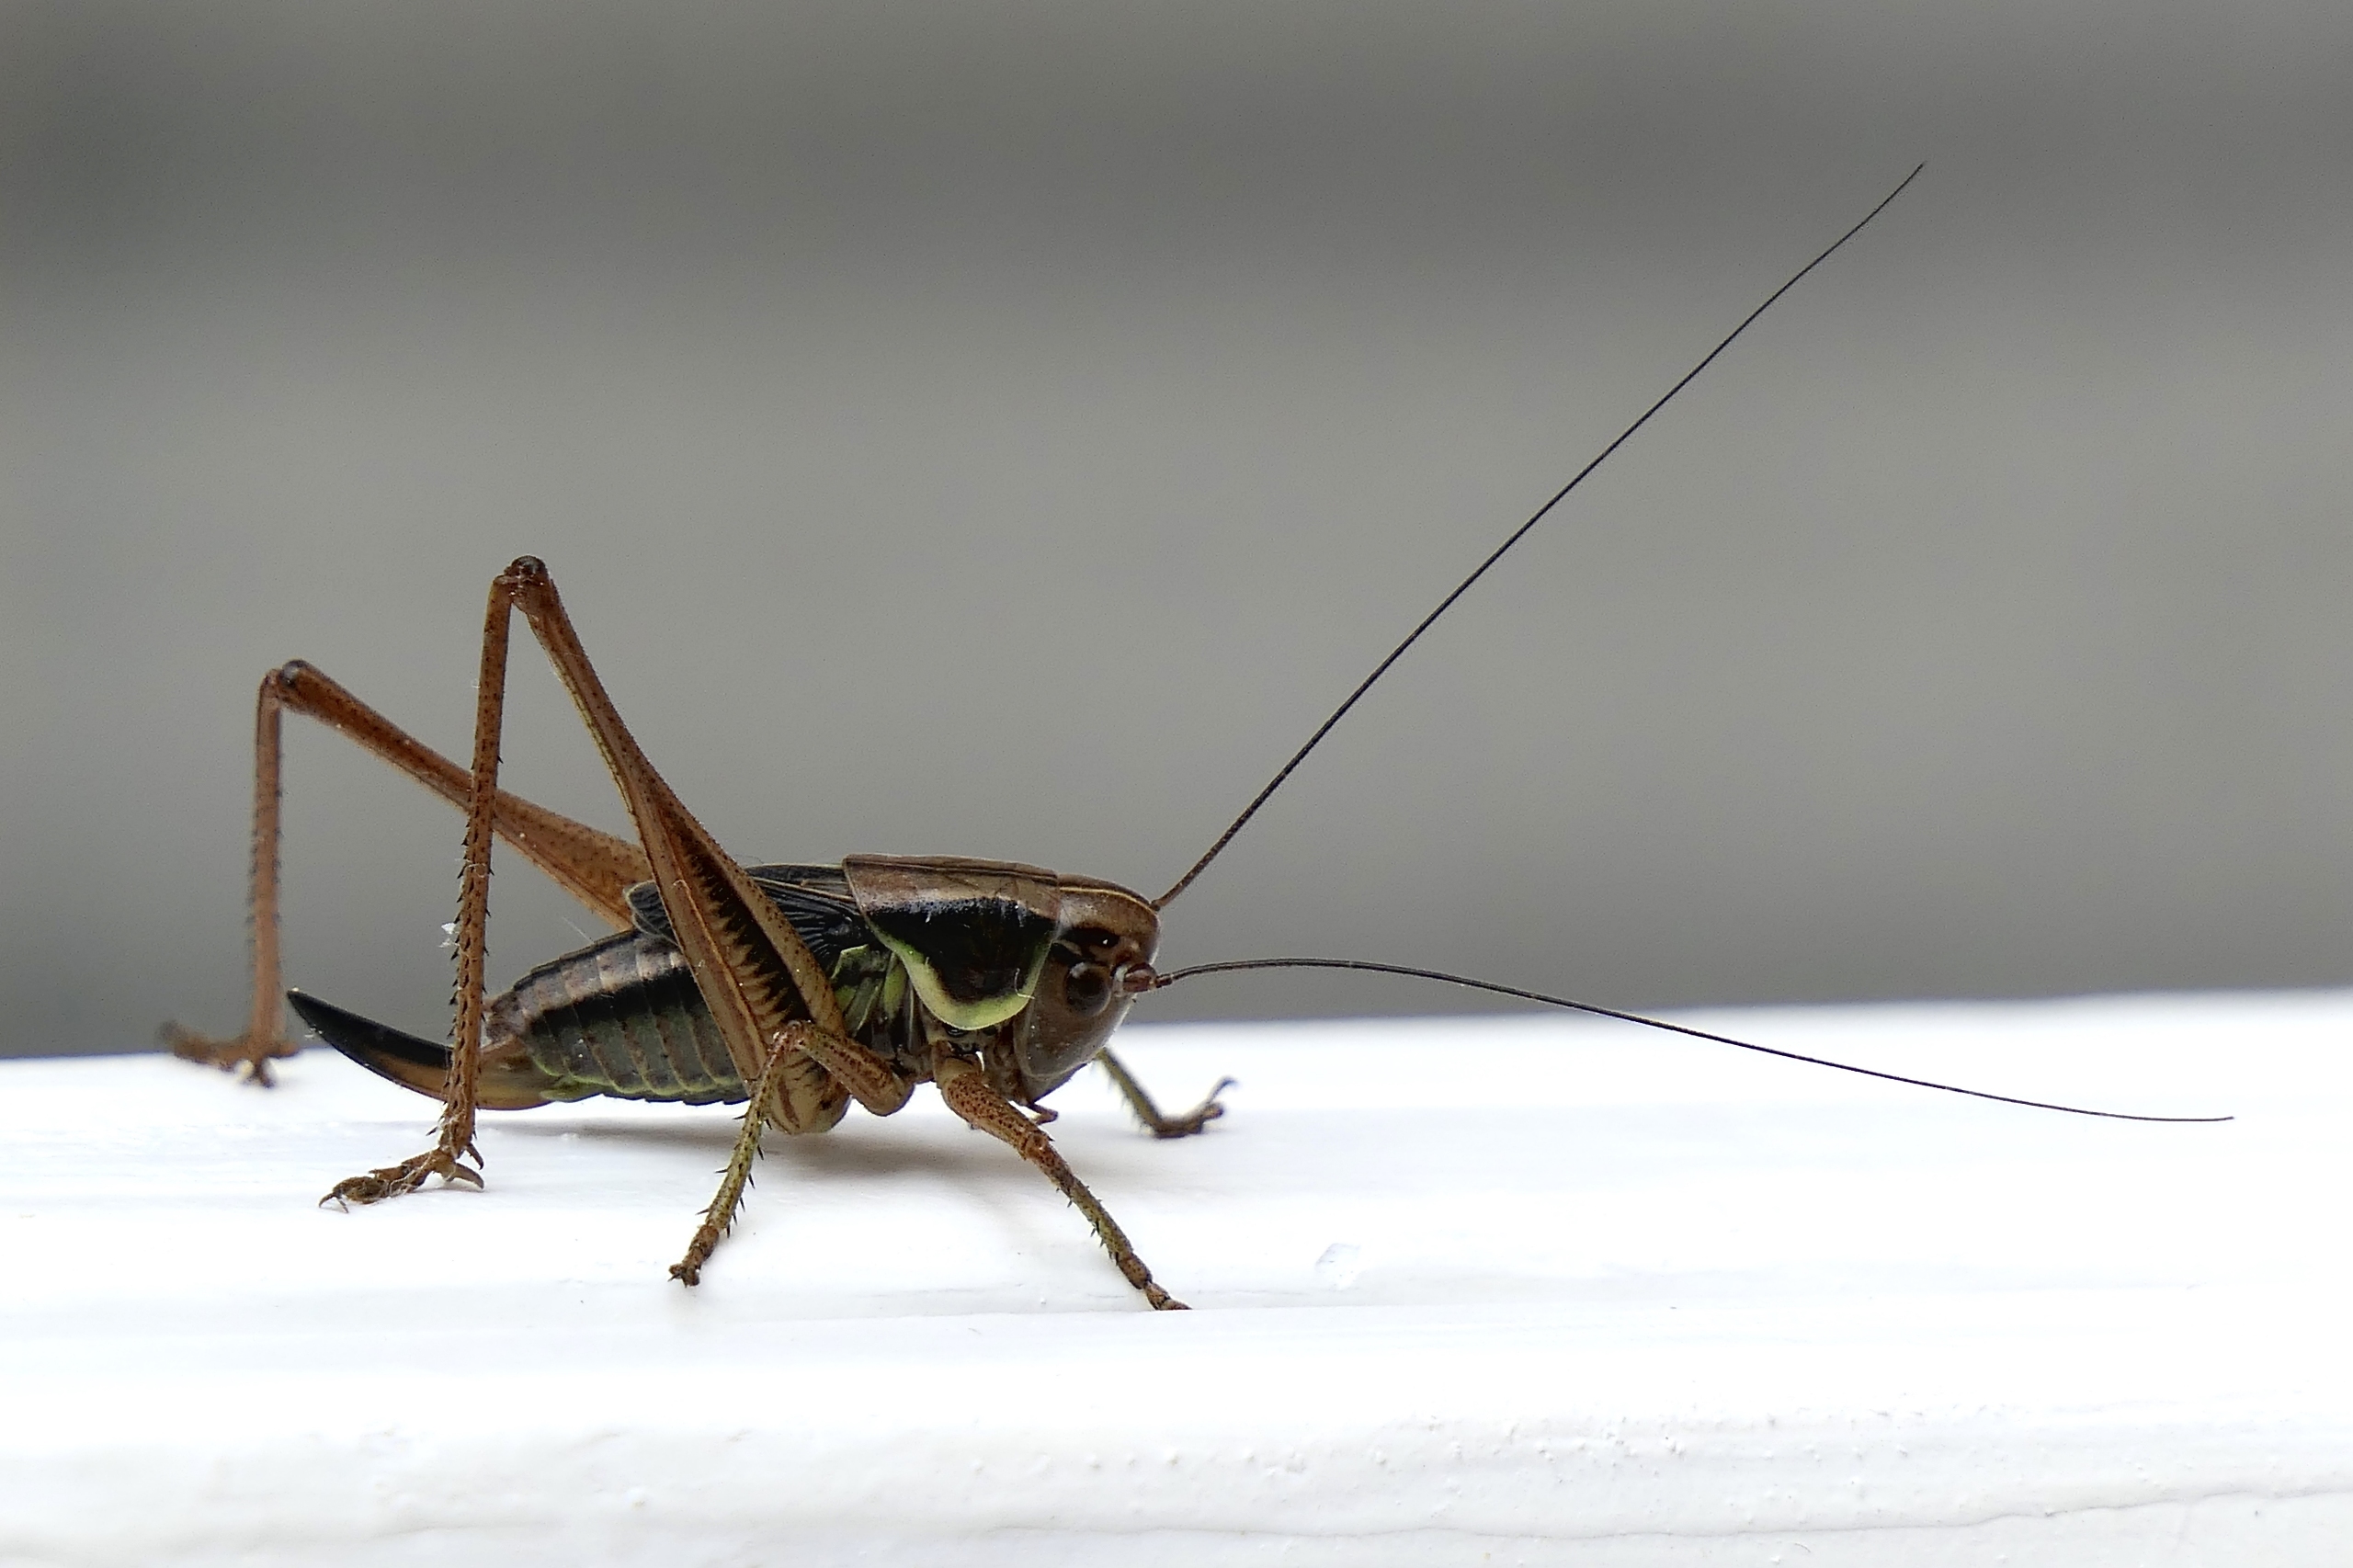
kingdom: Animalia
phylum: Arthropoda
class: Insecta
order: Orthoptera
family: Tettigoniidae
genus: Roeseliana
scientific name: Roeseliana roeselii
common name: Cikadegræshoppe
